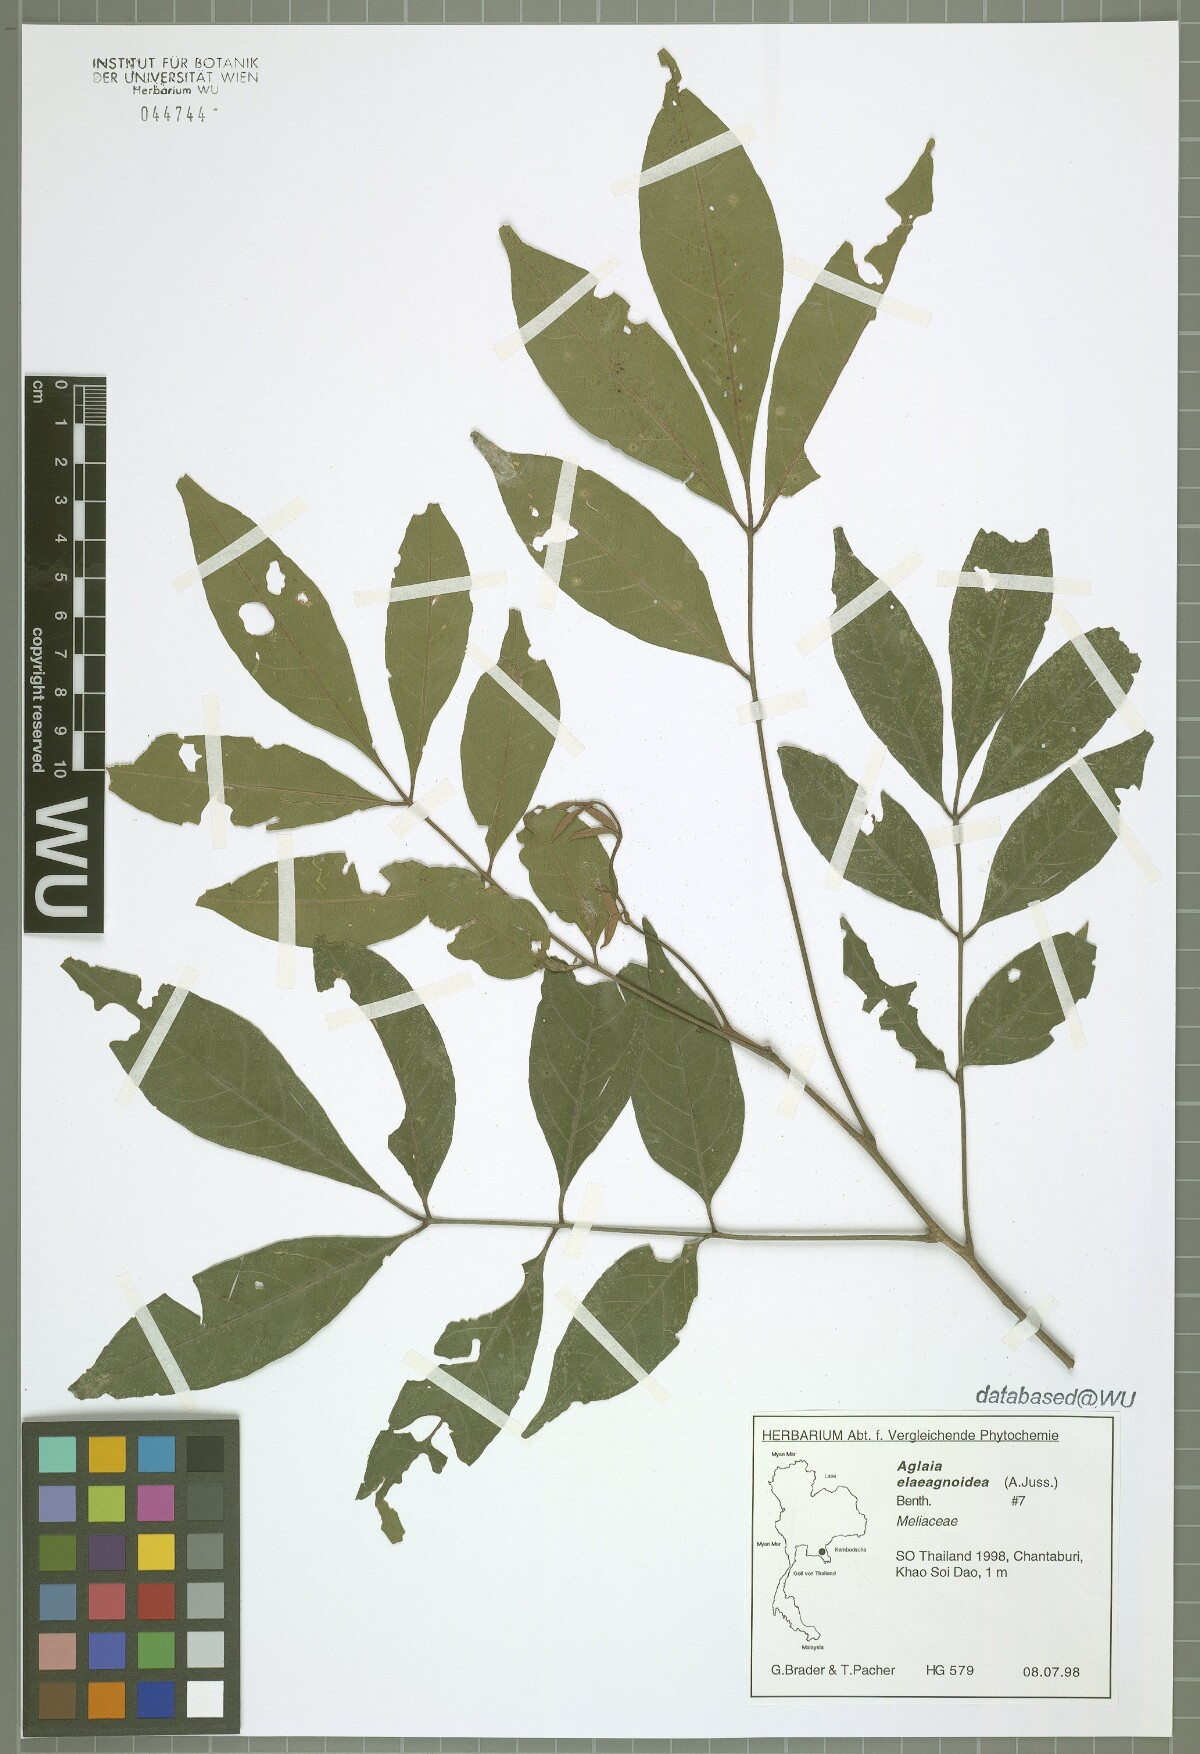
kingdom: Plantae
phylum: Tracheophyta
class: Magnoliopsida
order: Sapindales
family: Meliaceae
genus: Aglaia
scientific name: Aglaia elaeagnoidea
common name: Droopyleaf
